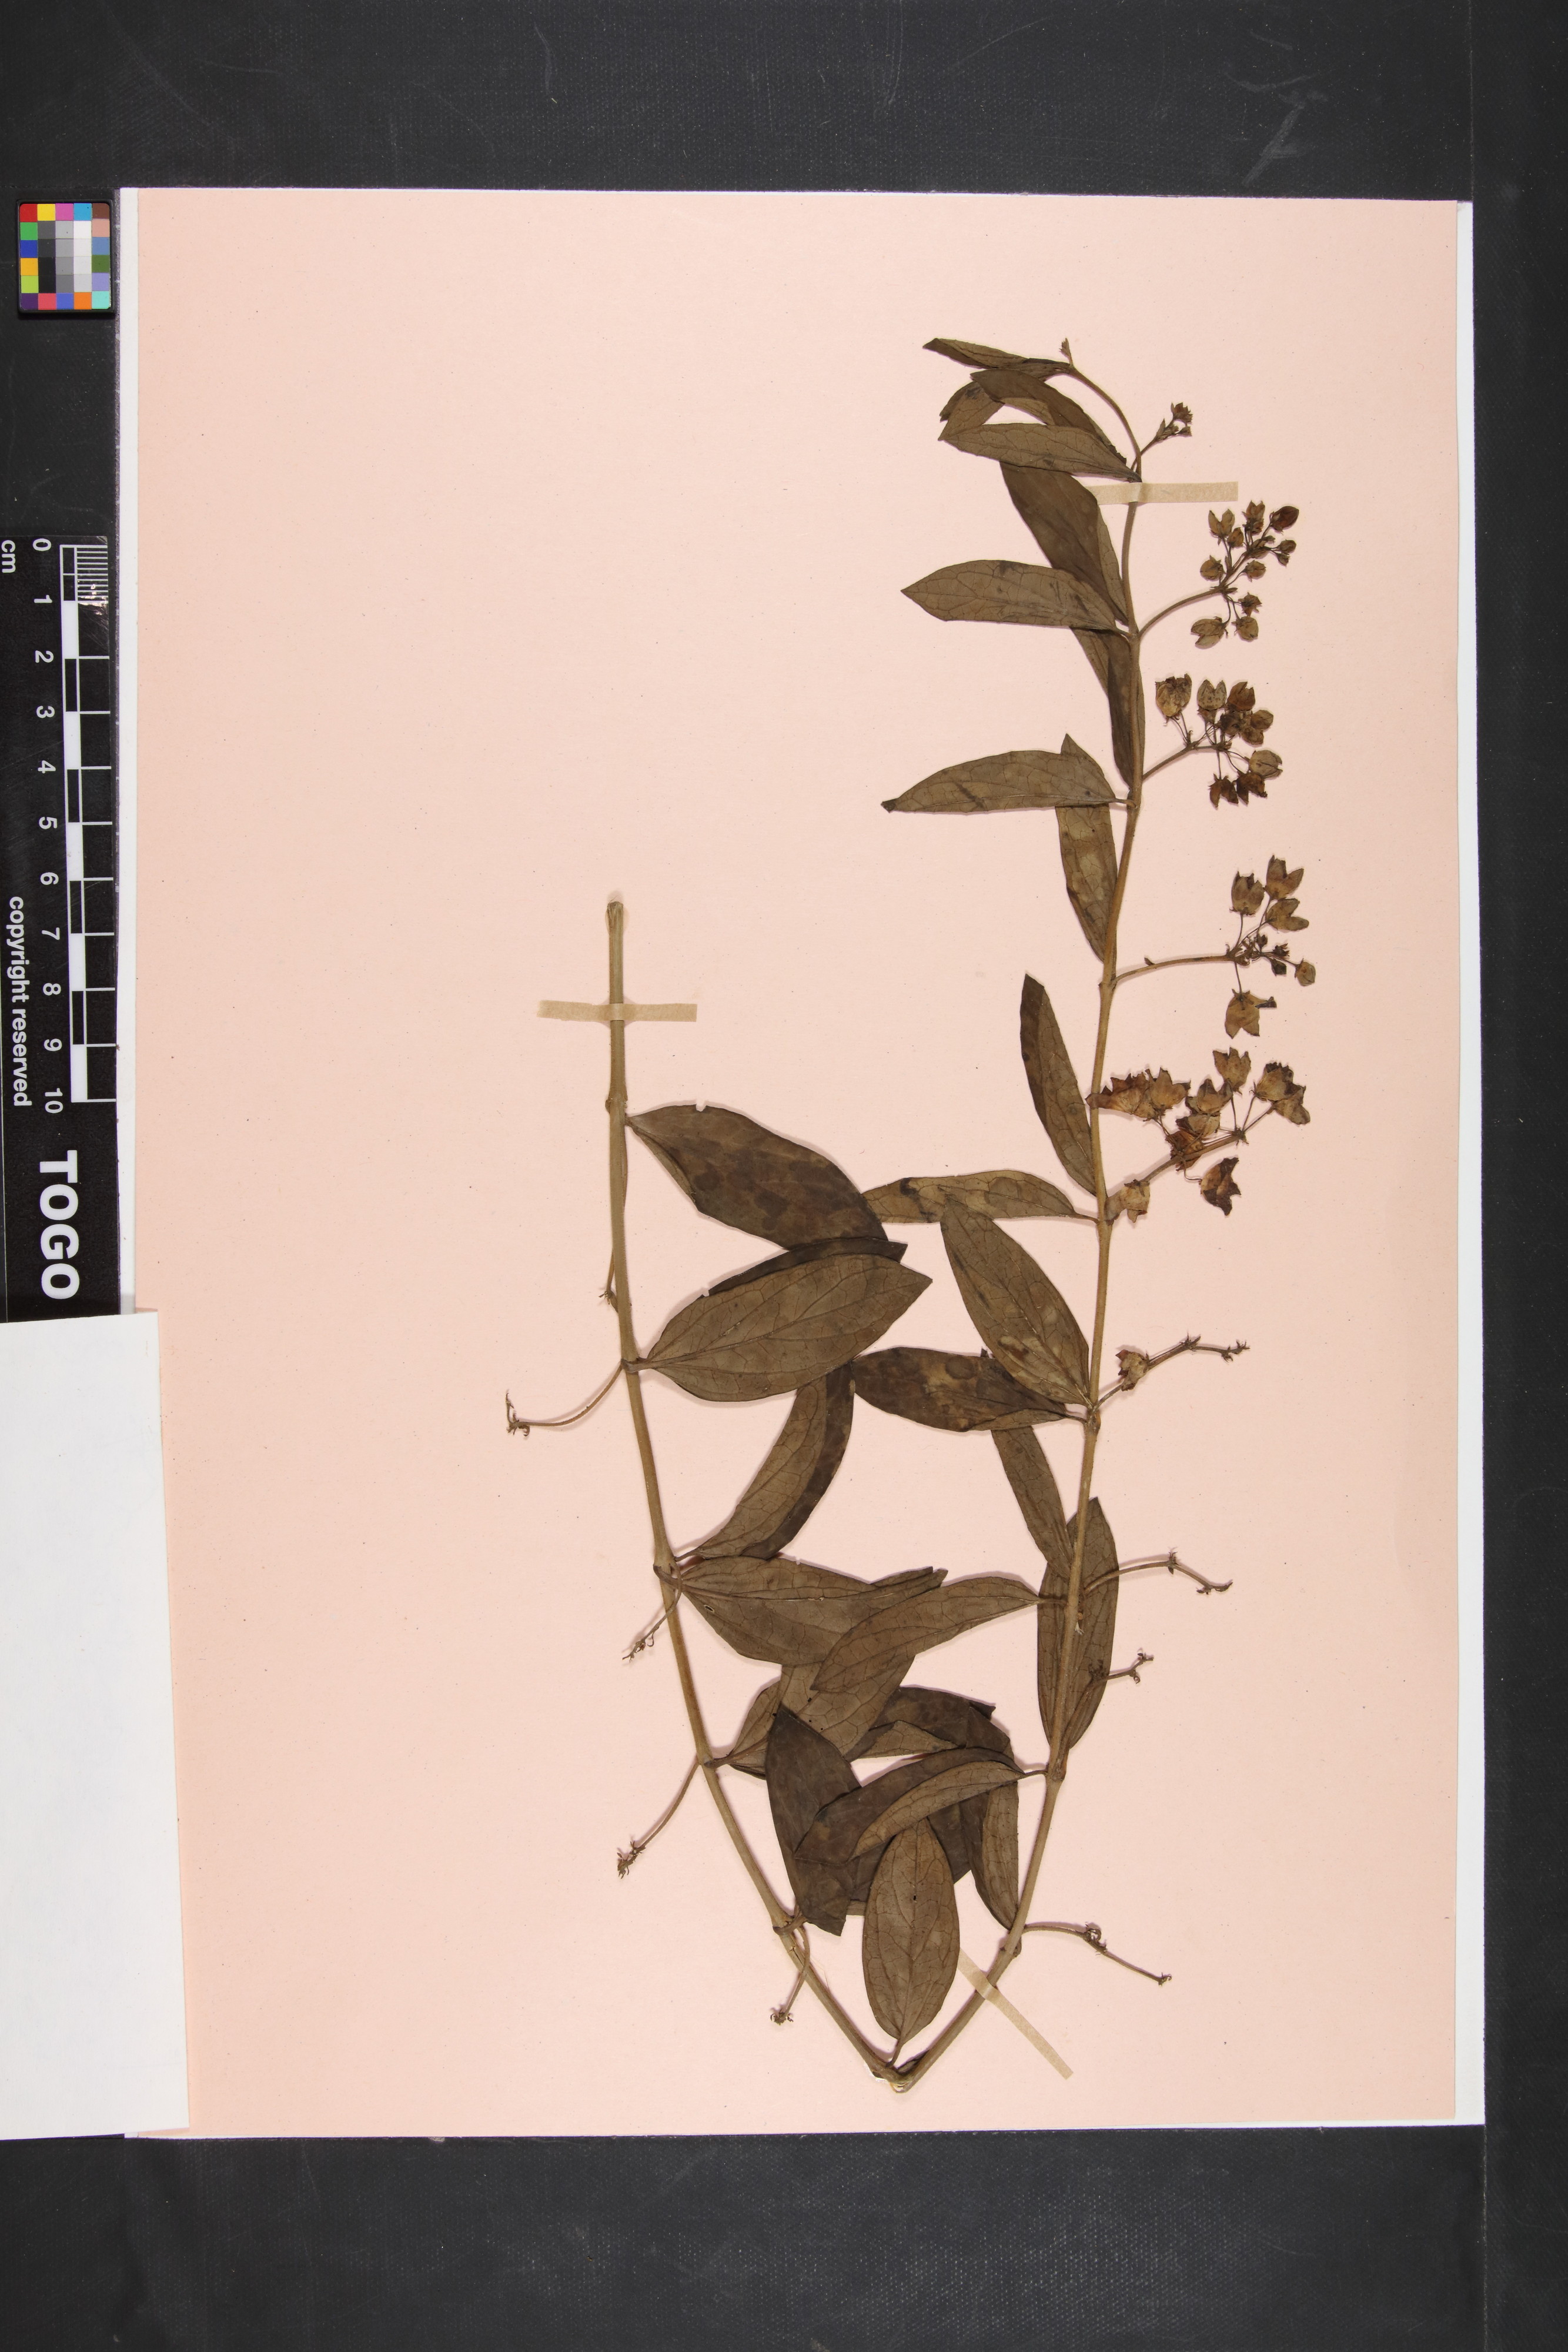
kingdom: Plantae
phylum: Tracheophyta
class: Magnoliopsida
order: Gentianales
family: Apocynaceae
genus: Vincetoxicum
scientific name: Vincetoxicum caffrum
